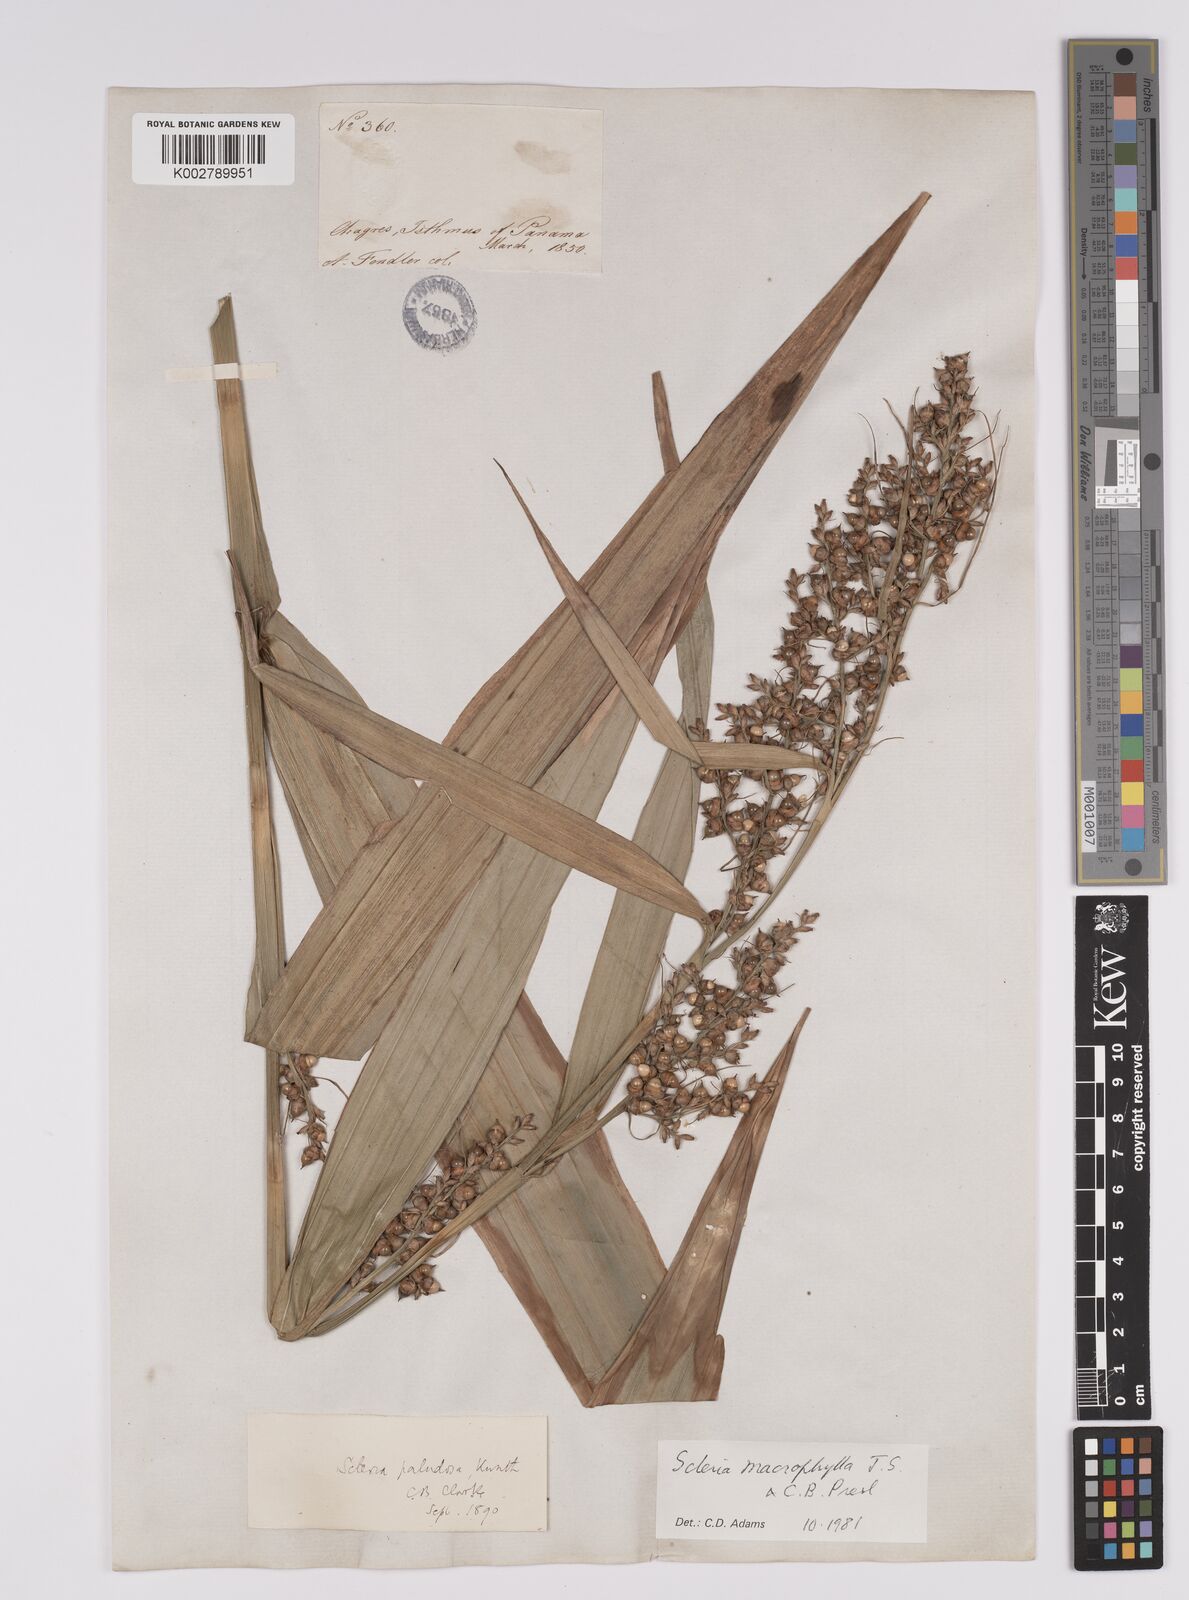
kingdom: Plantae
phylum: Tracheophyta
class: Liliopsida
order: Poales
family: Cyperaceae
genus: Scleria
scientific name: Scleria macrophylla
